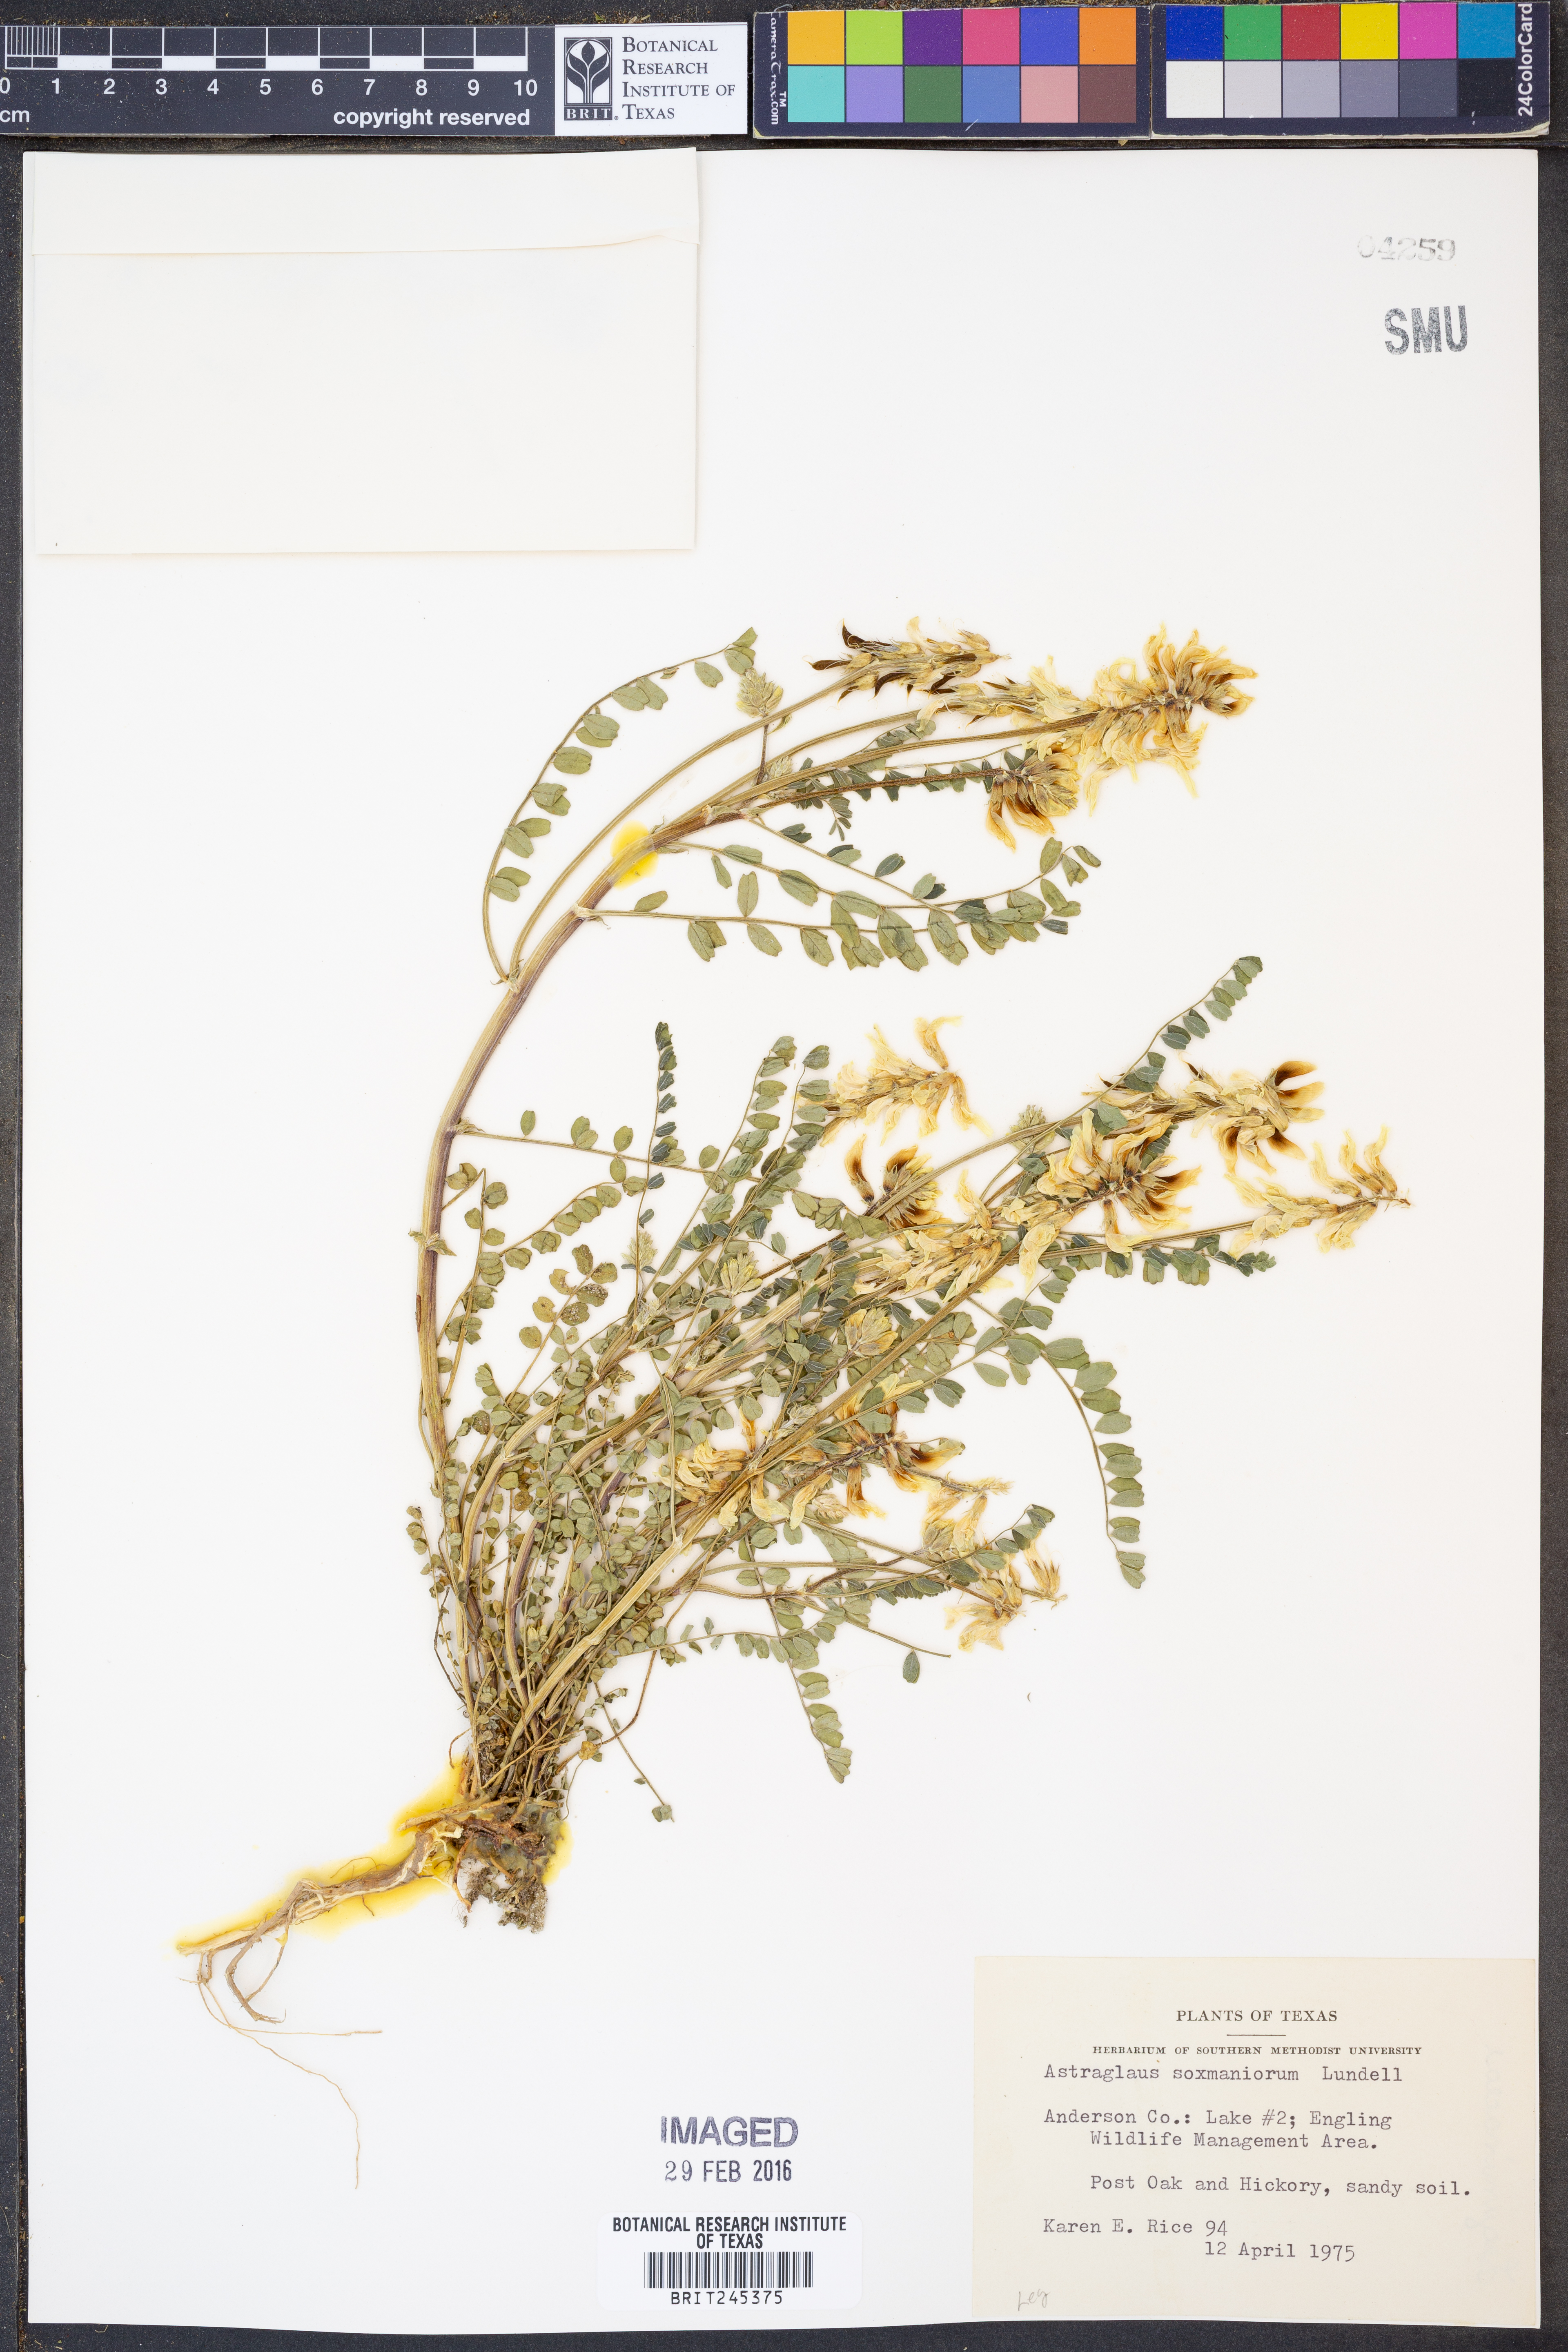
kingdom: Plantae
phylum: Tracheophyta
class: Magnoliopsida
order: Fabales
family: Fabaceae
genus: Astragalus
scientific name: Astragalus soxmaniorum
